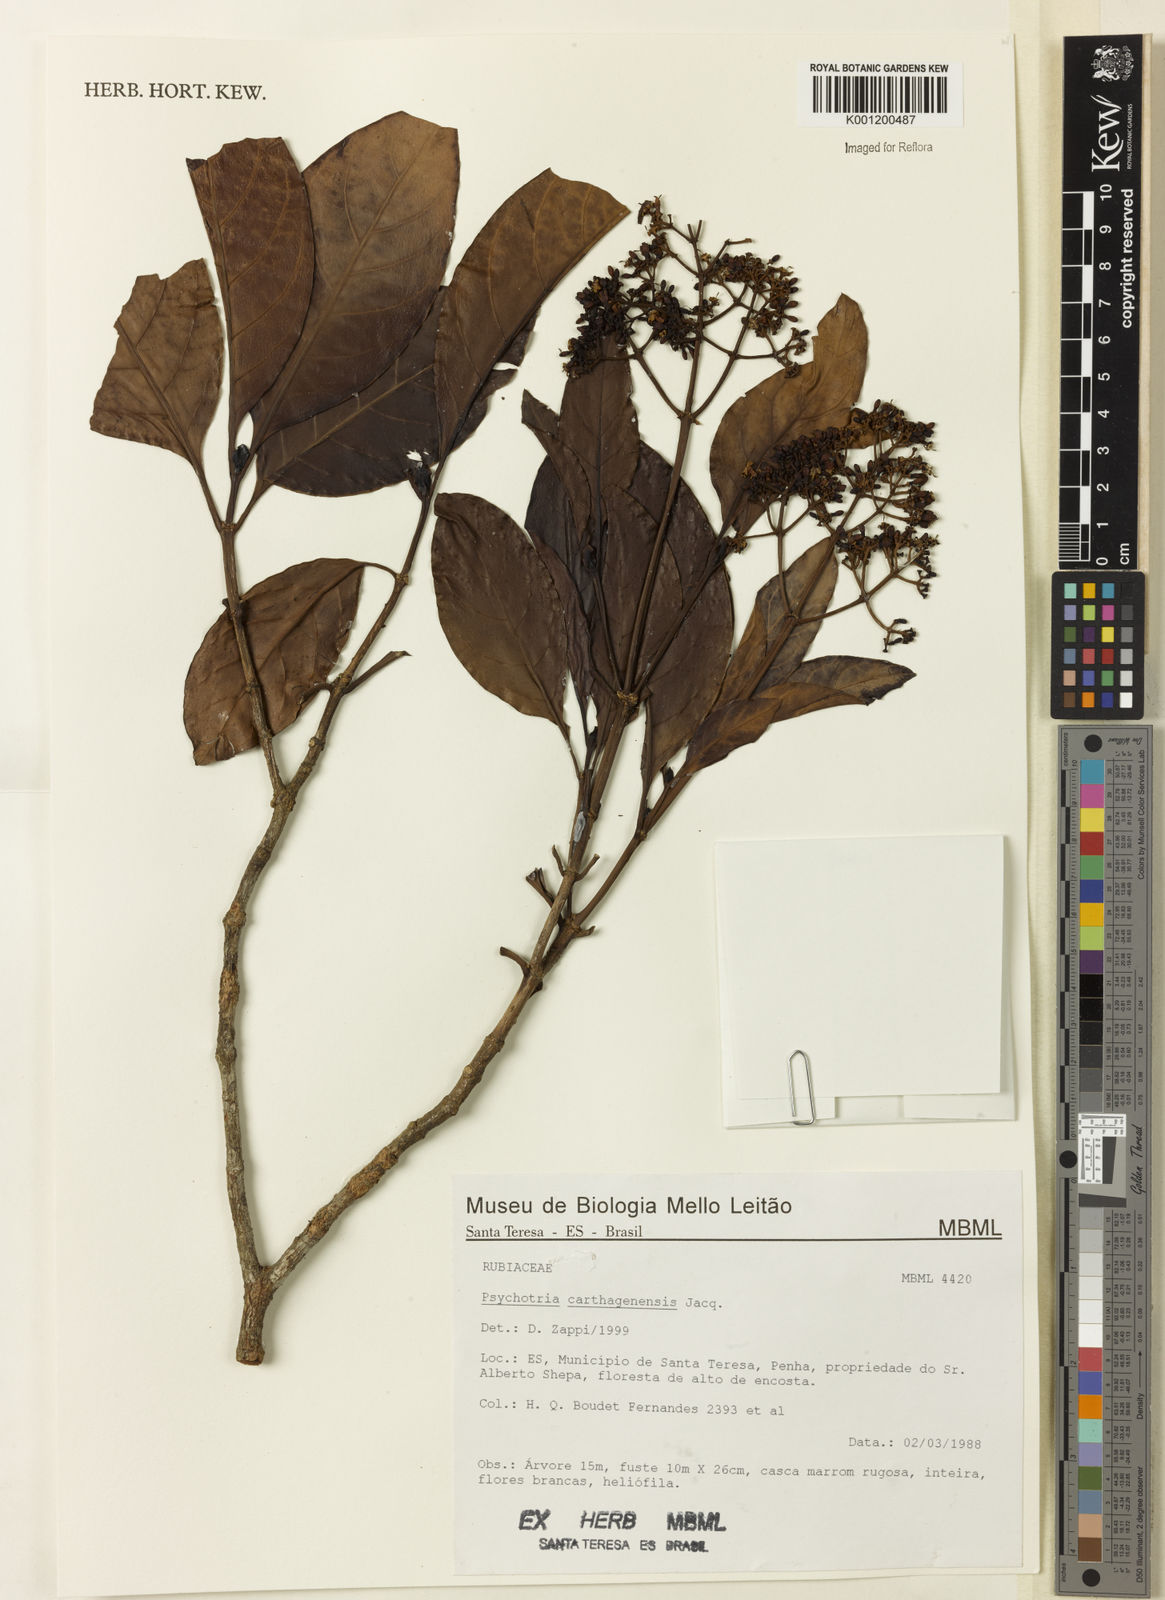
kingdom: Plantae
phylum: Tracheophyta
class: Magnoliopsida
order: Gentianales
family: Rubiaceae
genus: Psychotria
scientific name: Psychotria carthagenensis
